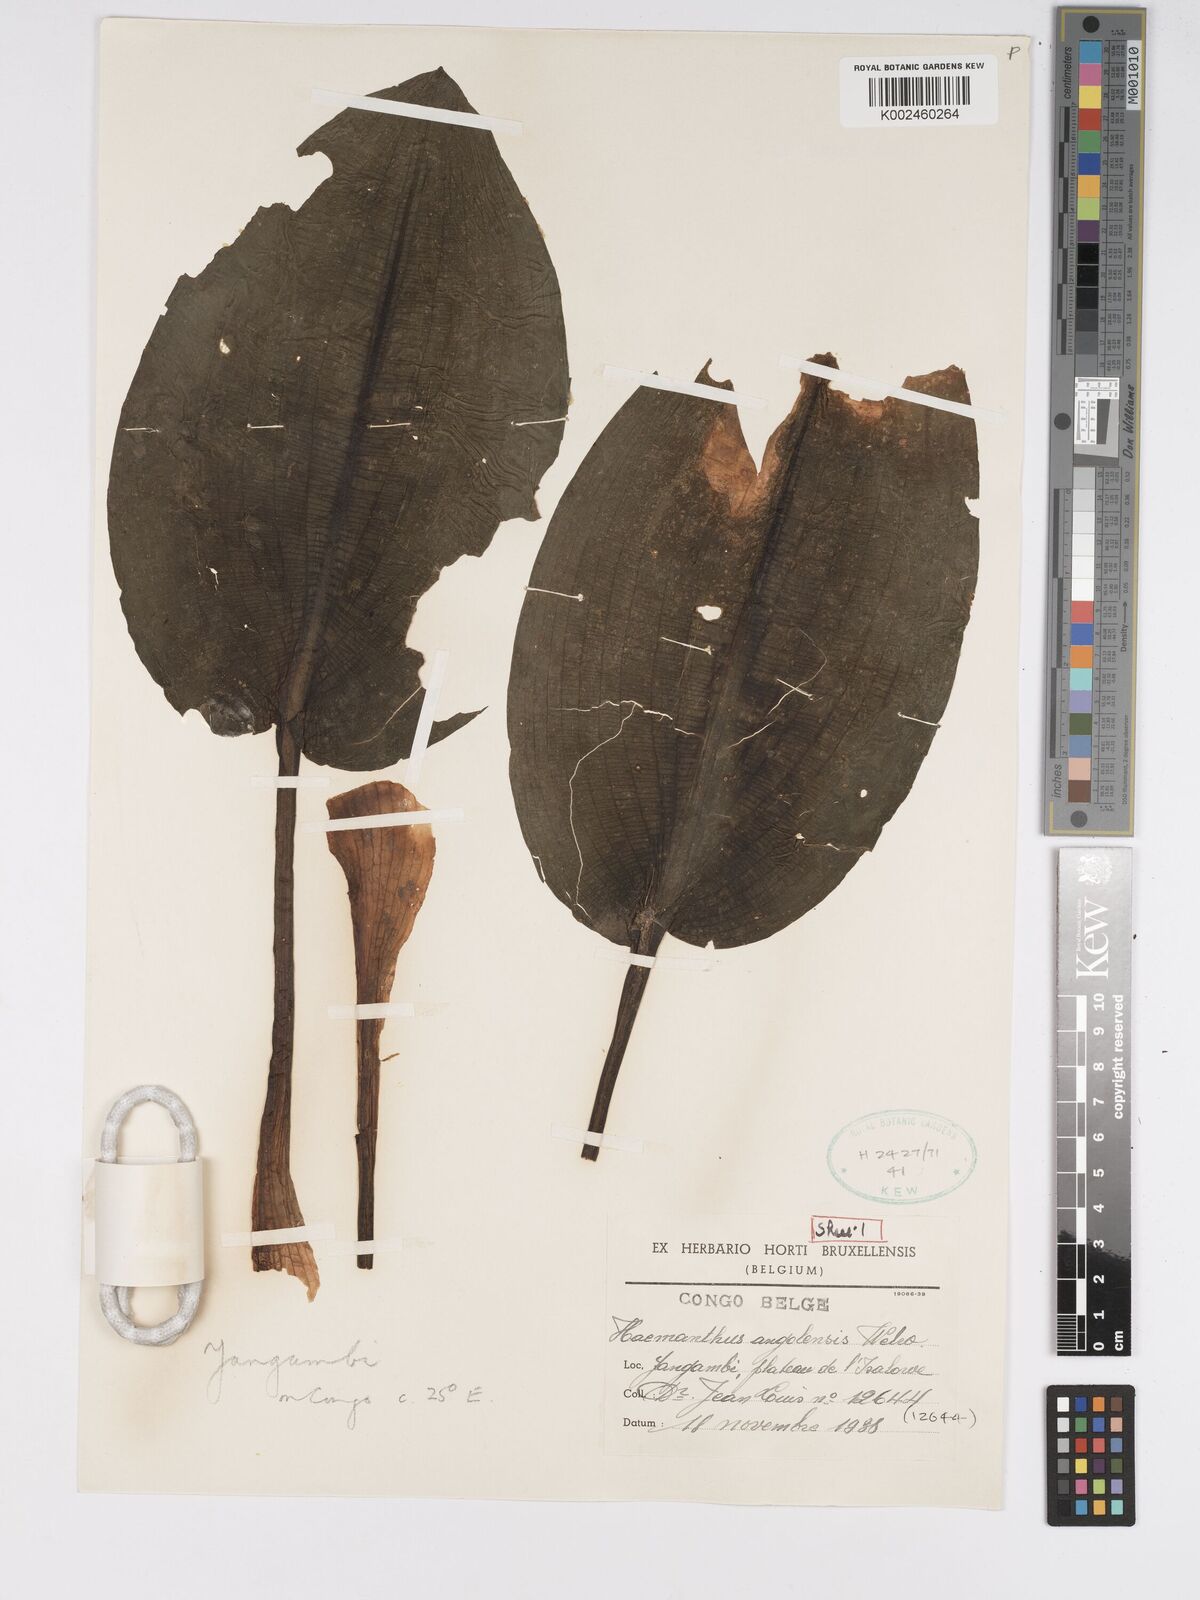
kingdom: Plantae
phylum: Tracheophyta
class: Liliopsida
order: Asparagales
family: Amaryllidaceae
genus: Scadoxus
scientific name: Scadoxus cinnabarinus
